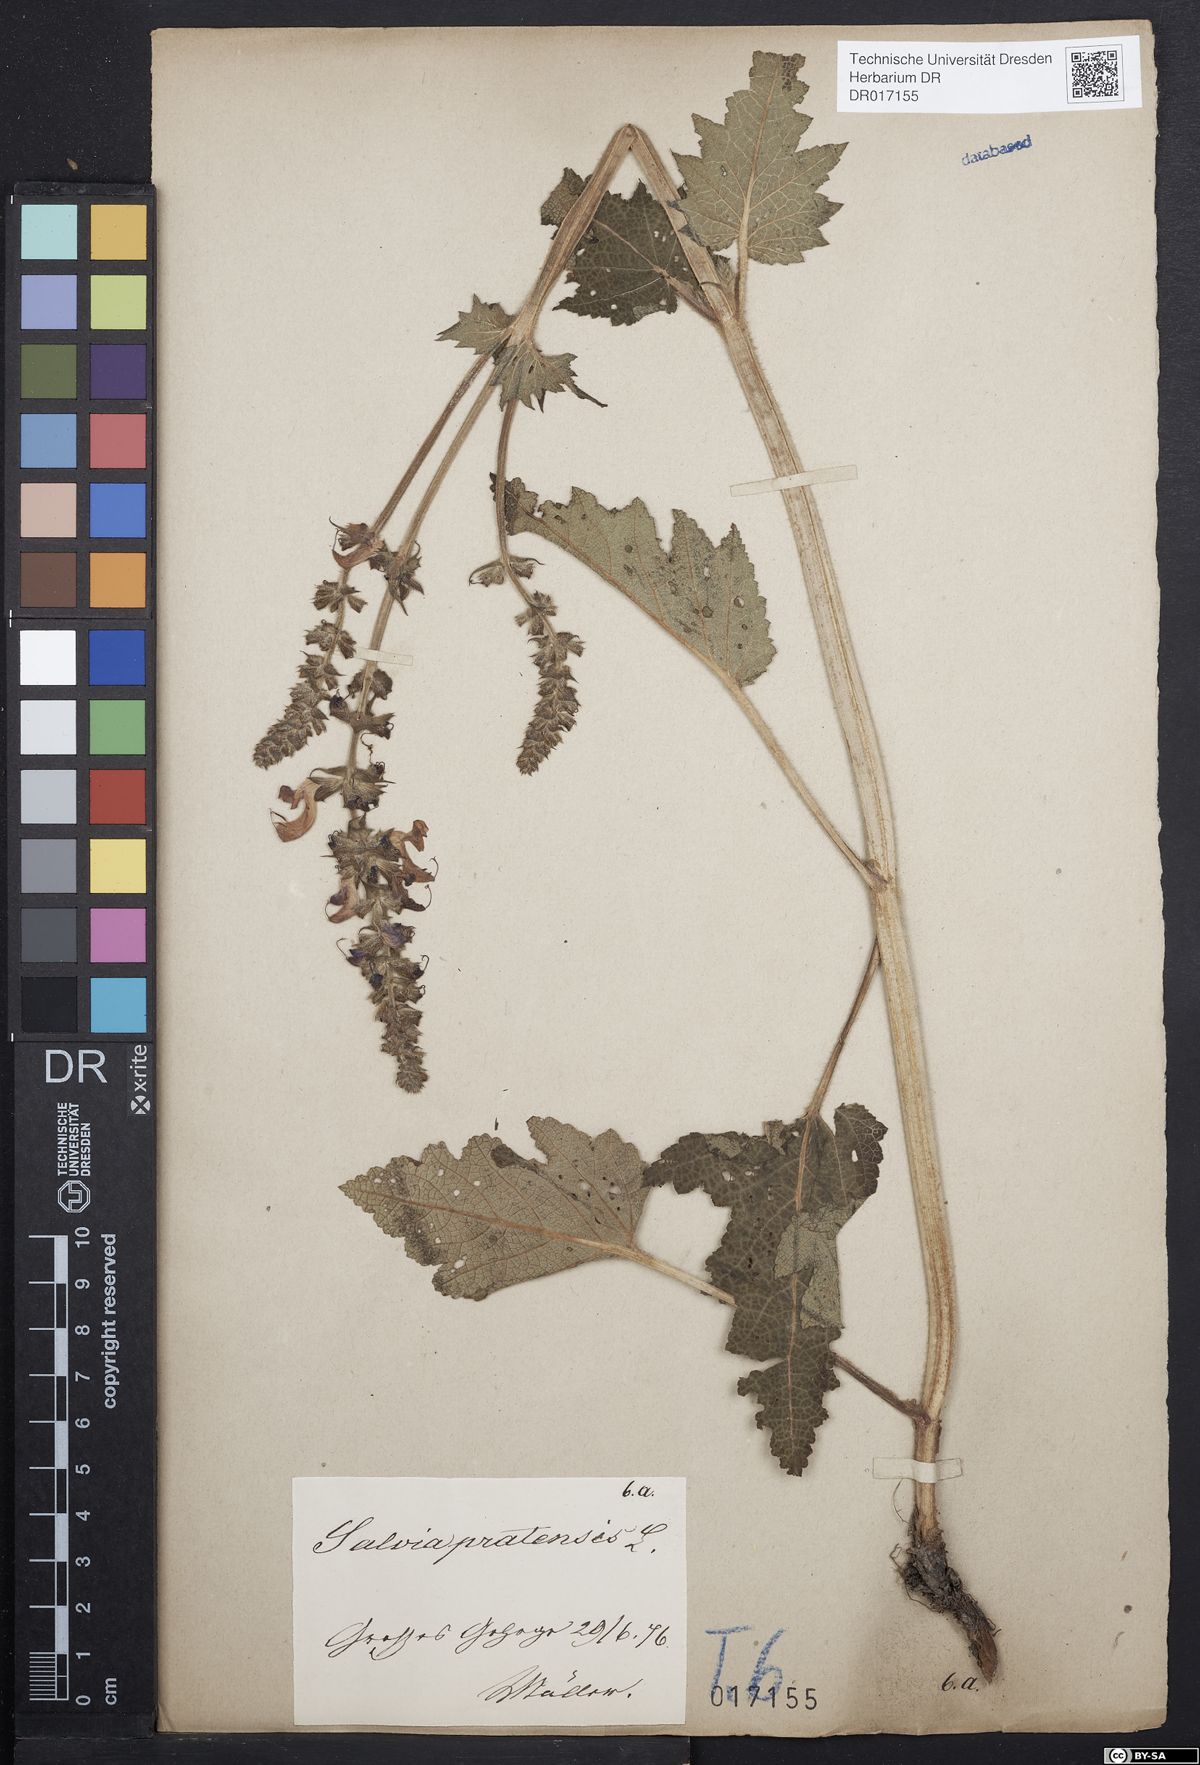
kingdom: Plantae
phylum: Tracheophyta
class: Magnoliopsida
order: Lamiales
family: Lamiaceae
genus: Salvia
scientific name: Salvia pratensis
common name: Meadow sage
